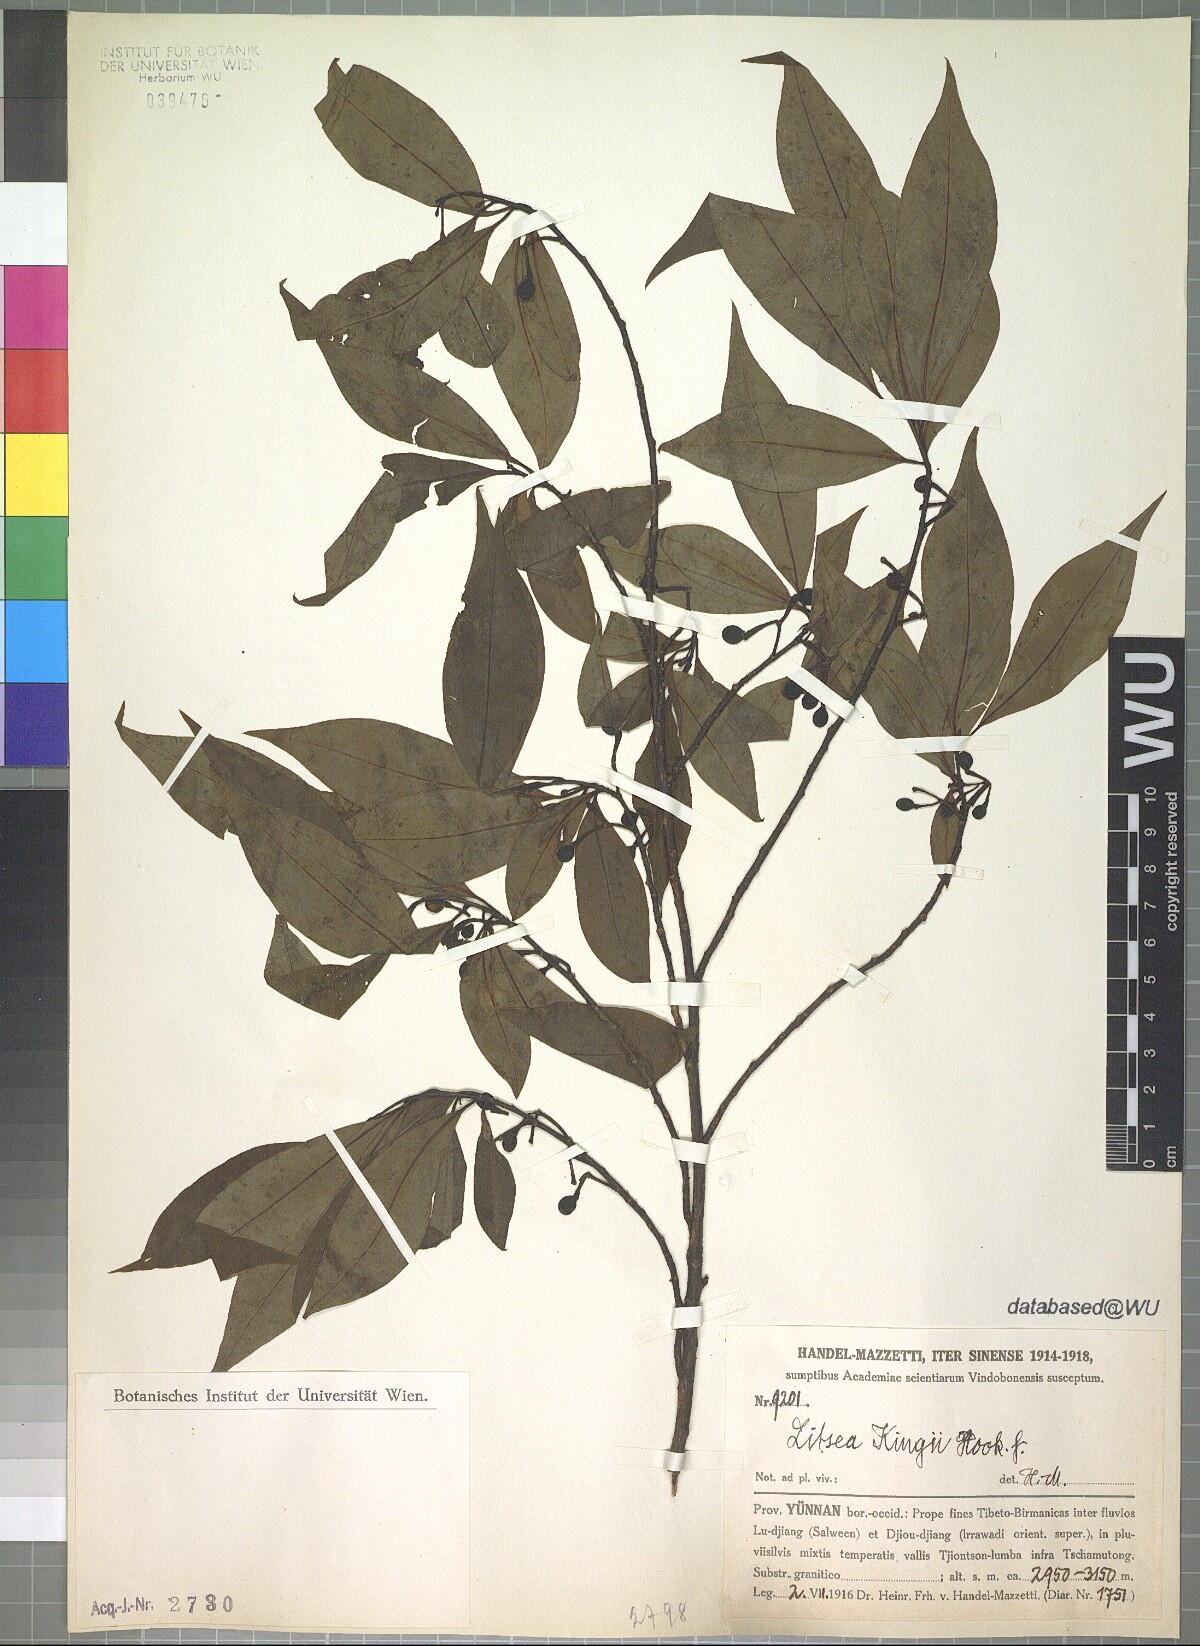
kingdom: Plantae
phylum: Tracheophyta
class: Magnoliopsida
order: Laurales
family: Lauraceae
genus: Litsea
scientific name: Litsea kingii
